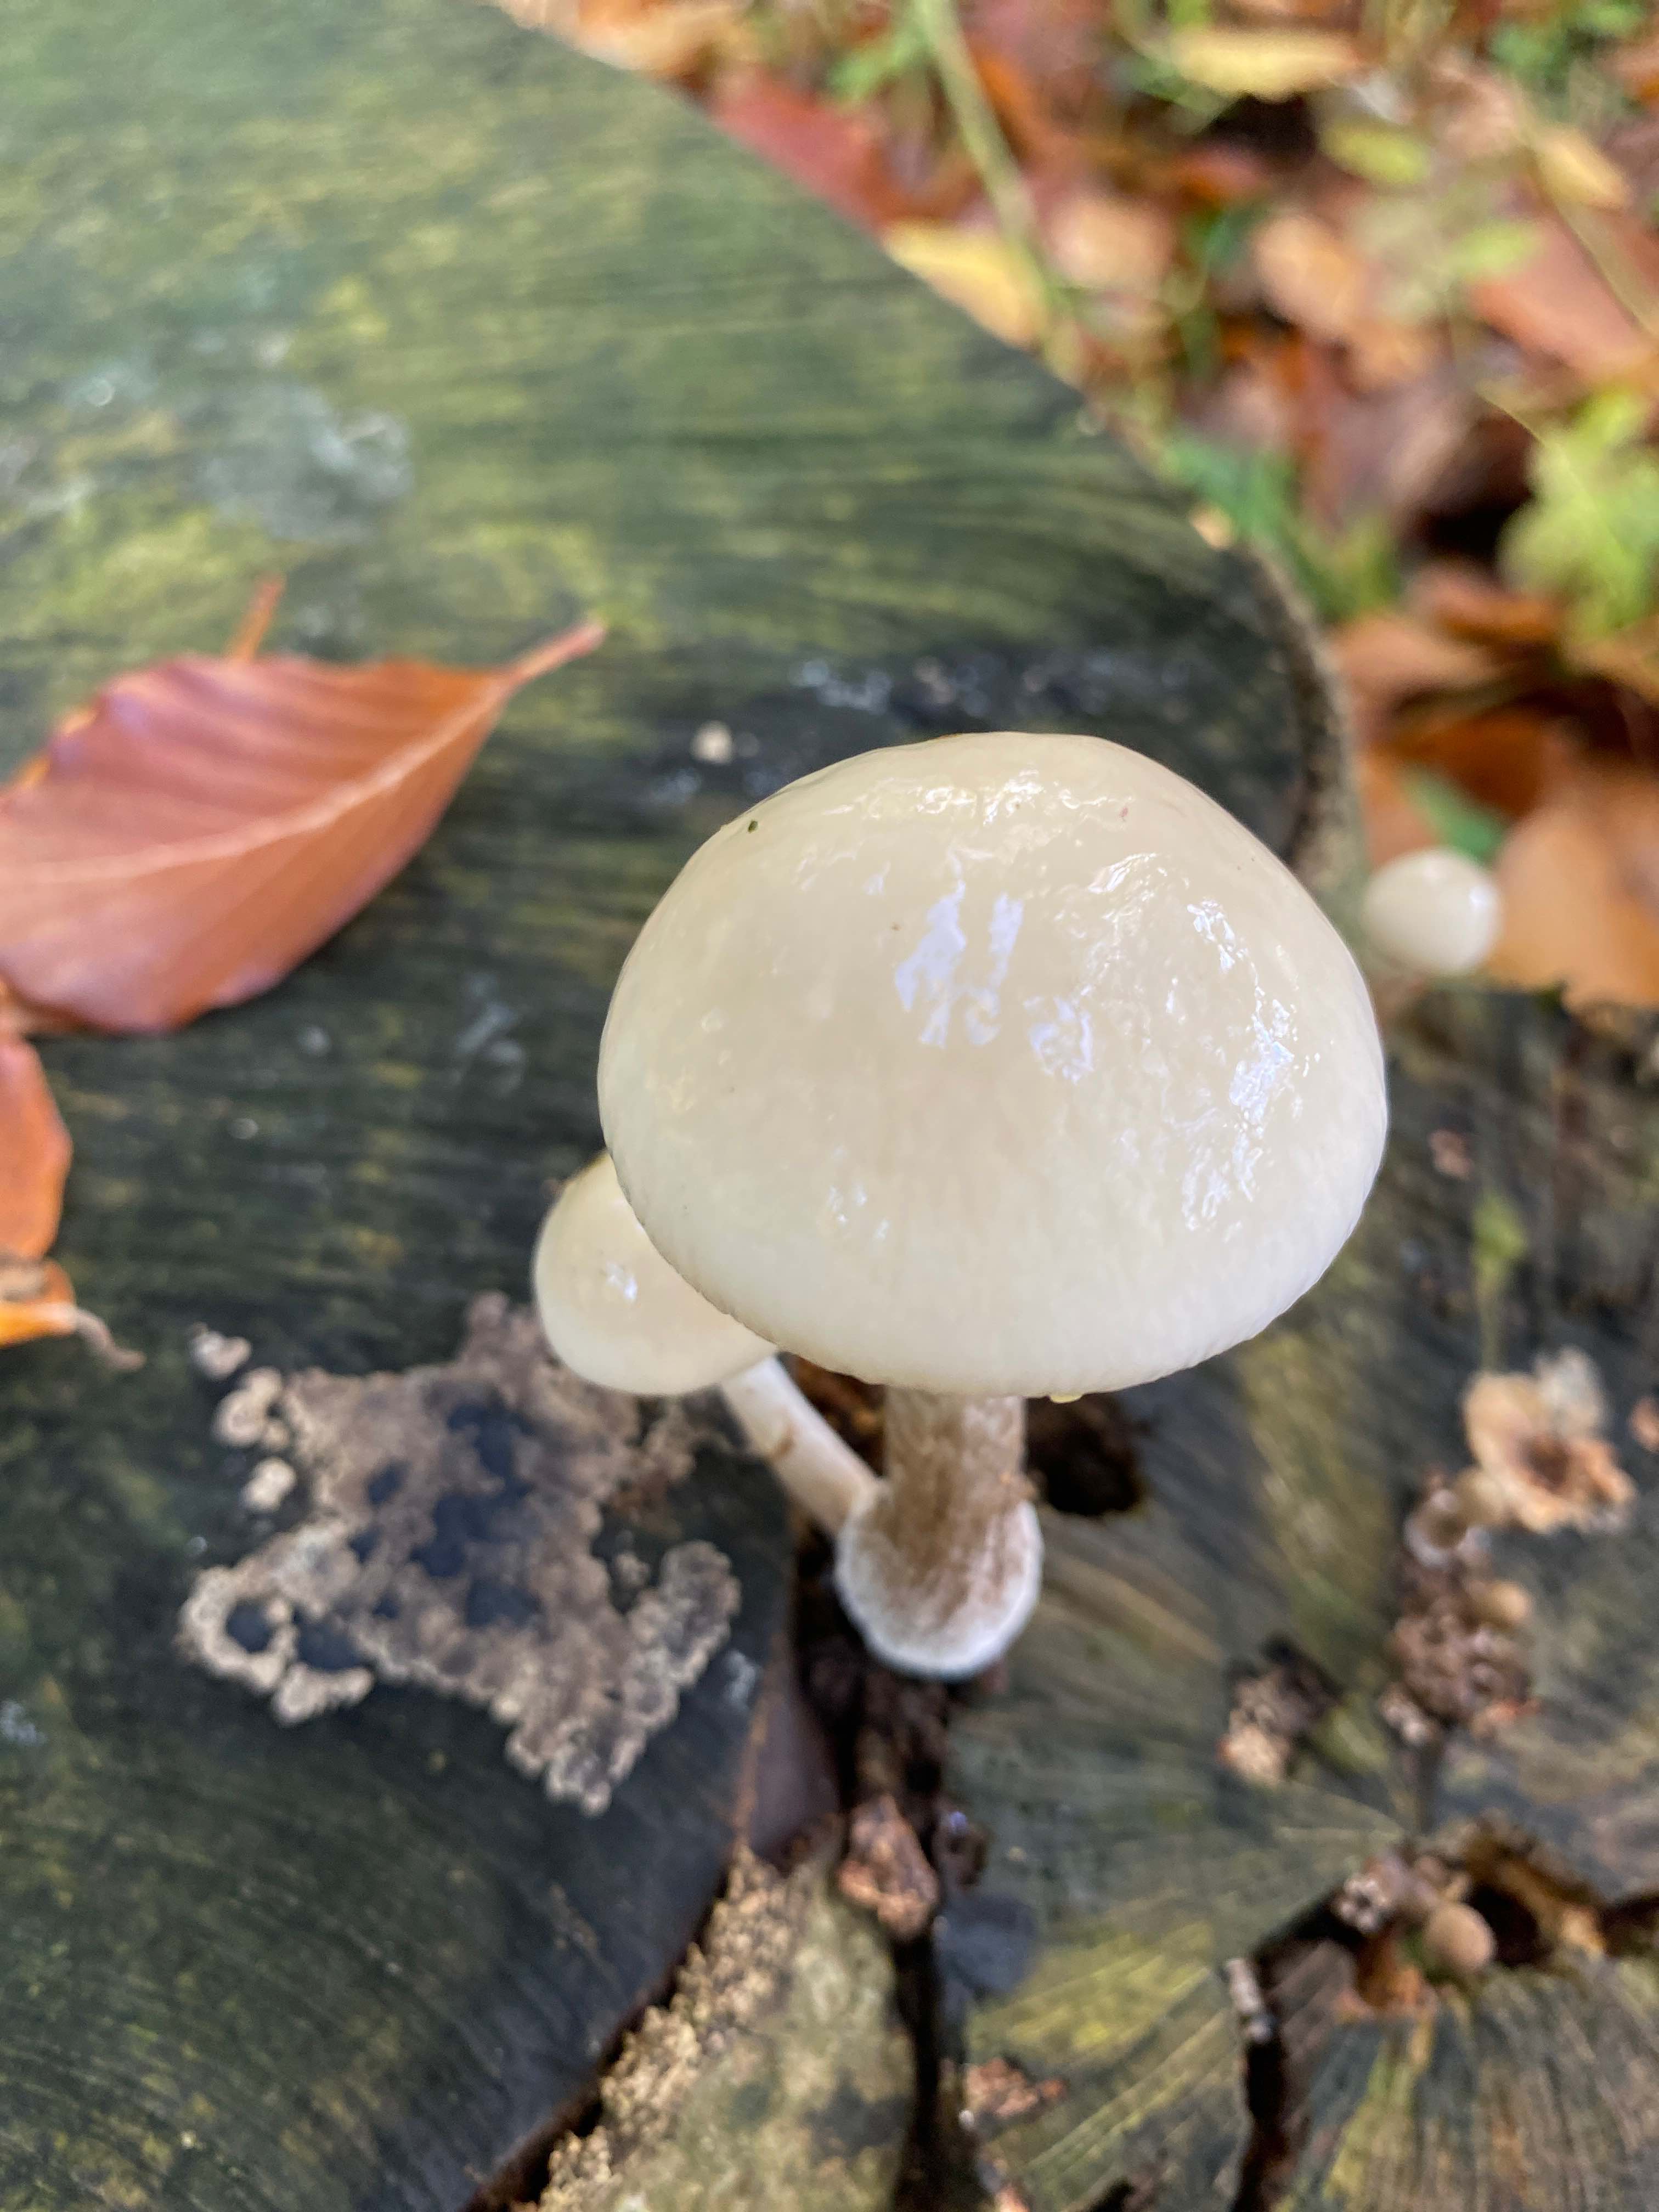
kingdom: Fungi
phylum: Basidiomycota
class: Agaricomycetes
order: Agaricales
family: Physalacriaceae
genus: Mucidula
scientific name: Mucidula mucida
